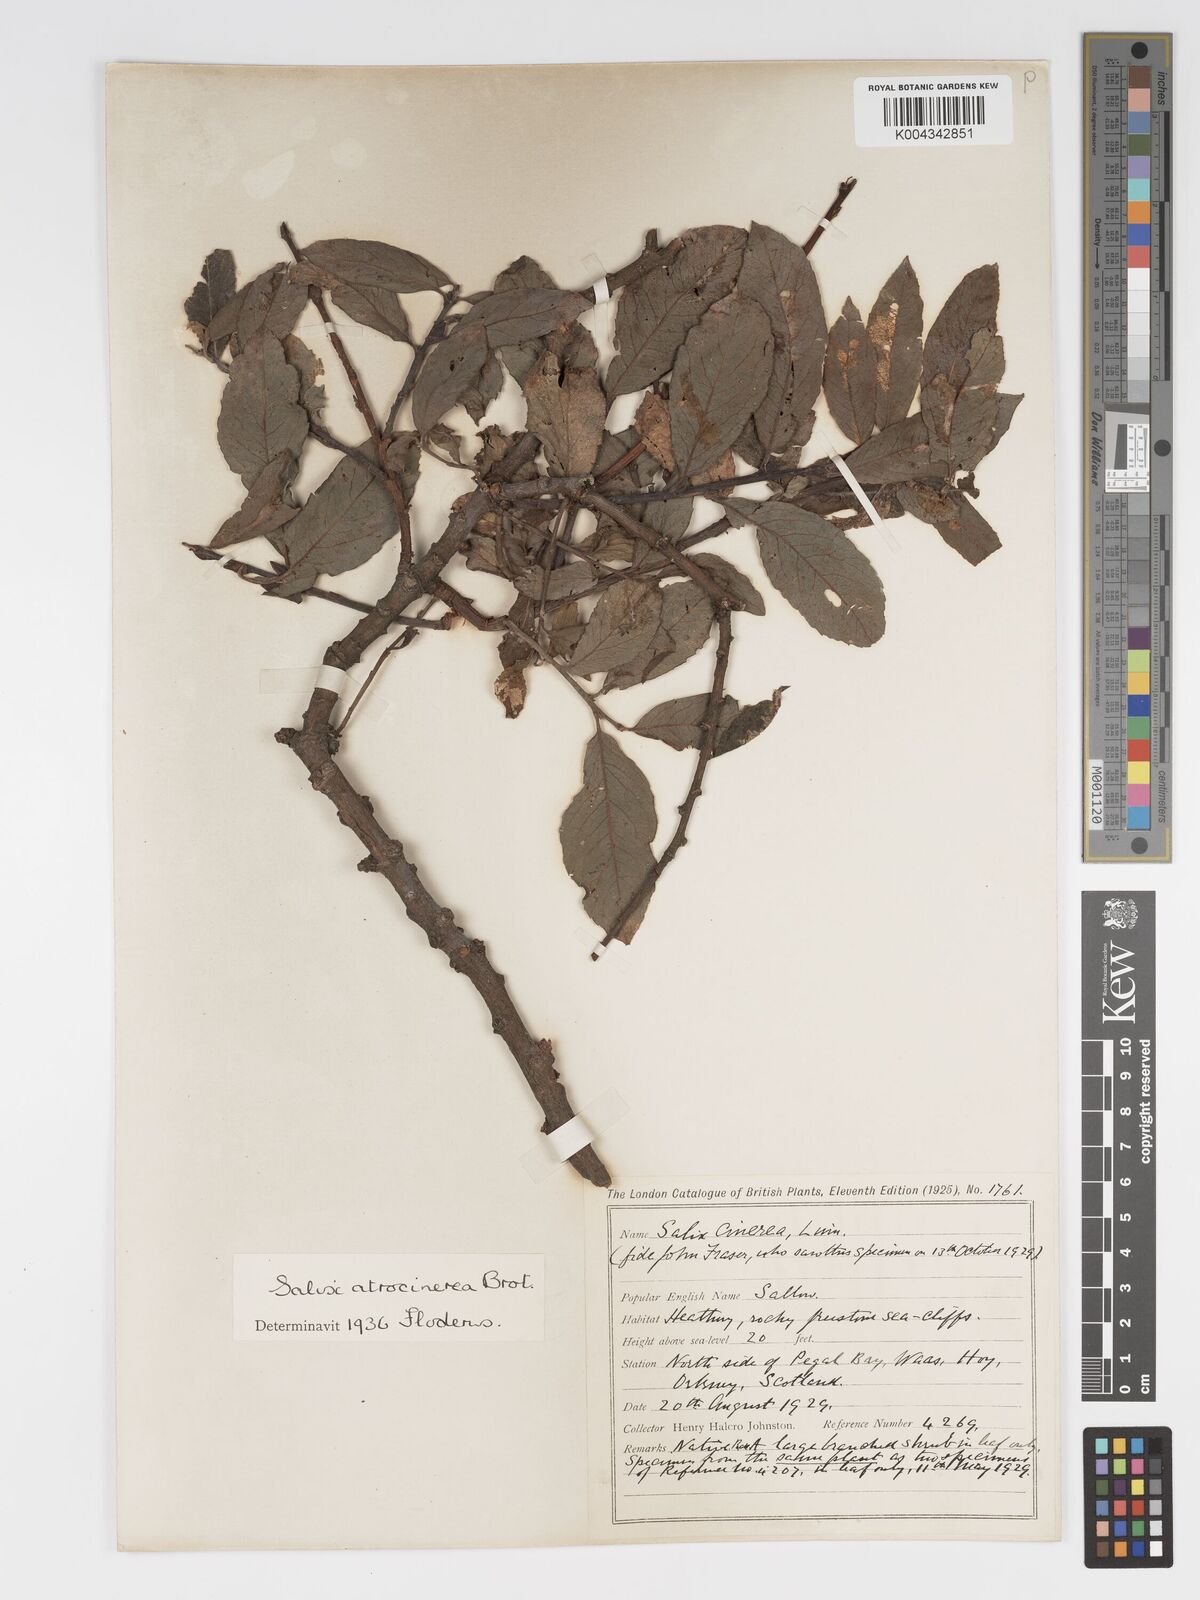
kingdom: Plantae
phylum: Tracheophyta
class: Magnoliopsida
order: Malpighiales
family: Salicaceae
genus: Salix
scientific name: Salix atrocinerea
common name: Rusty willow
